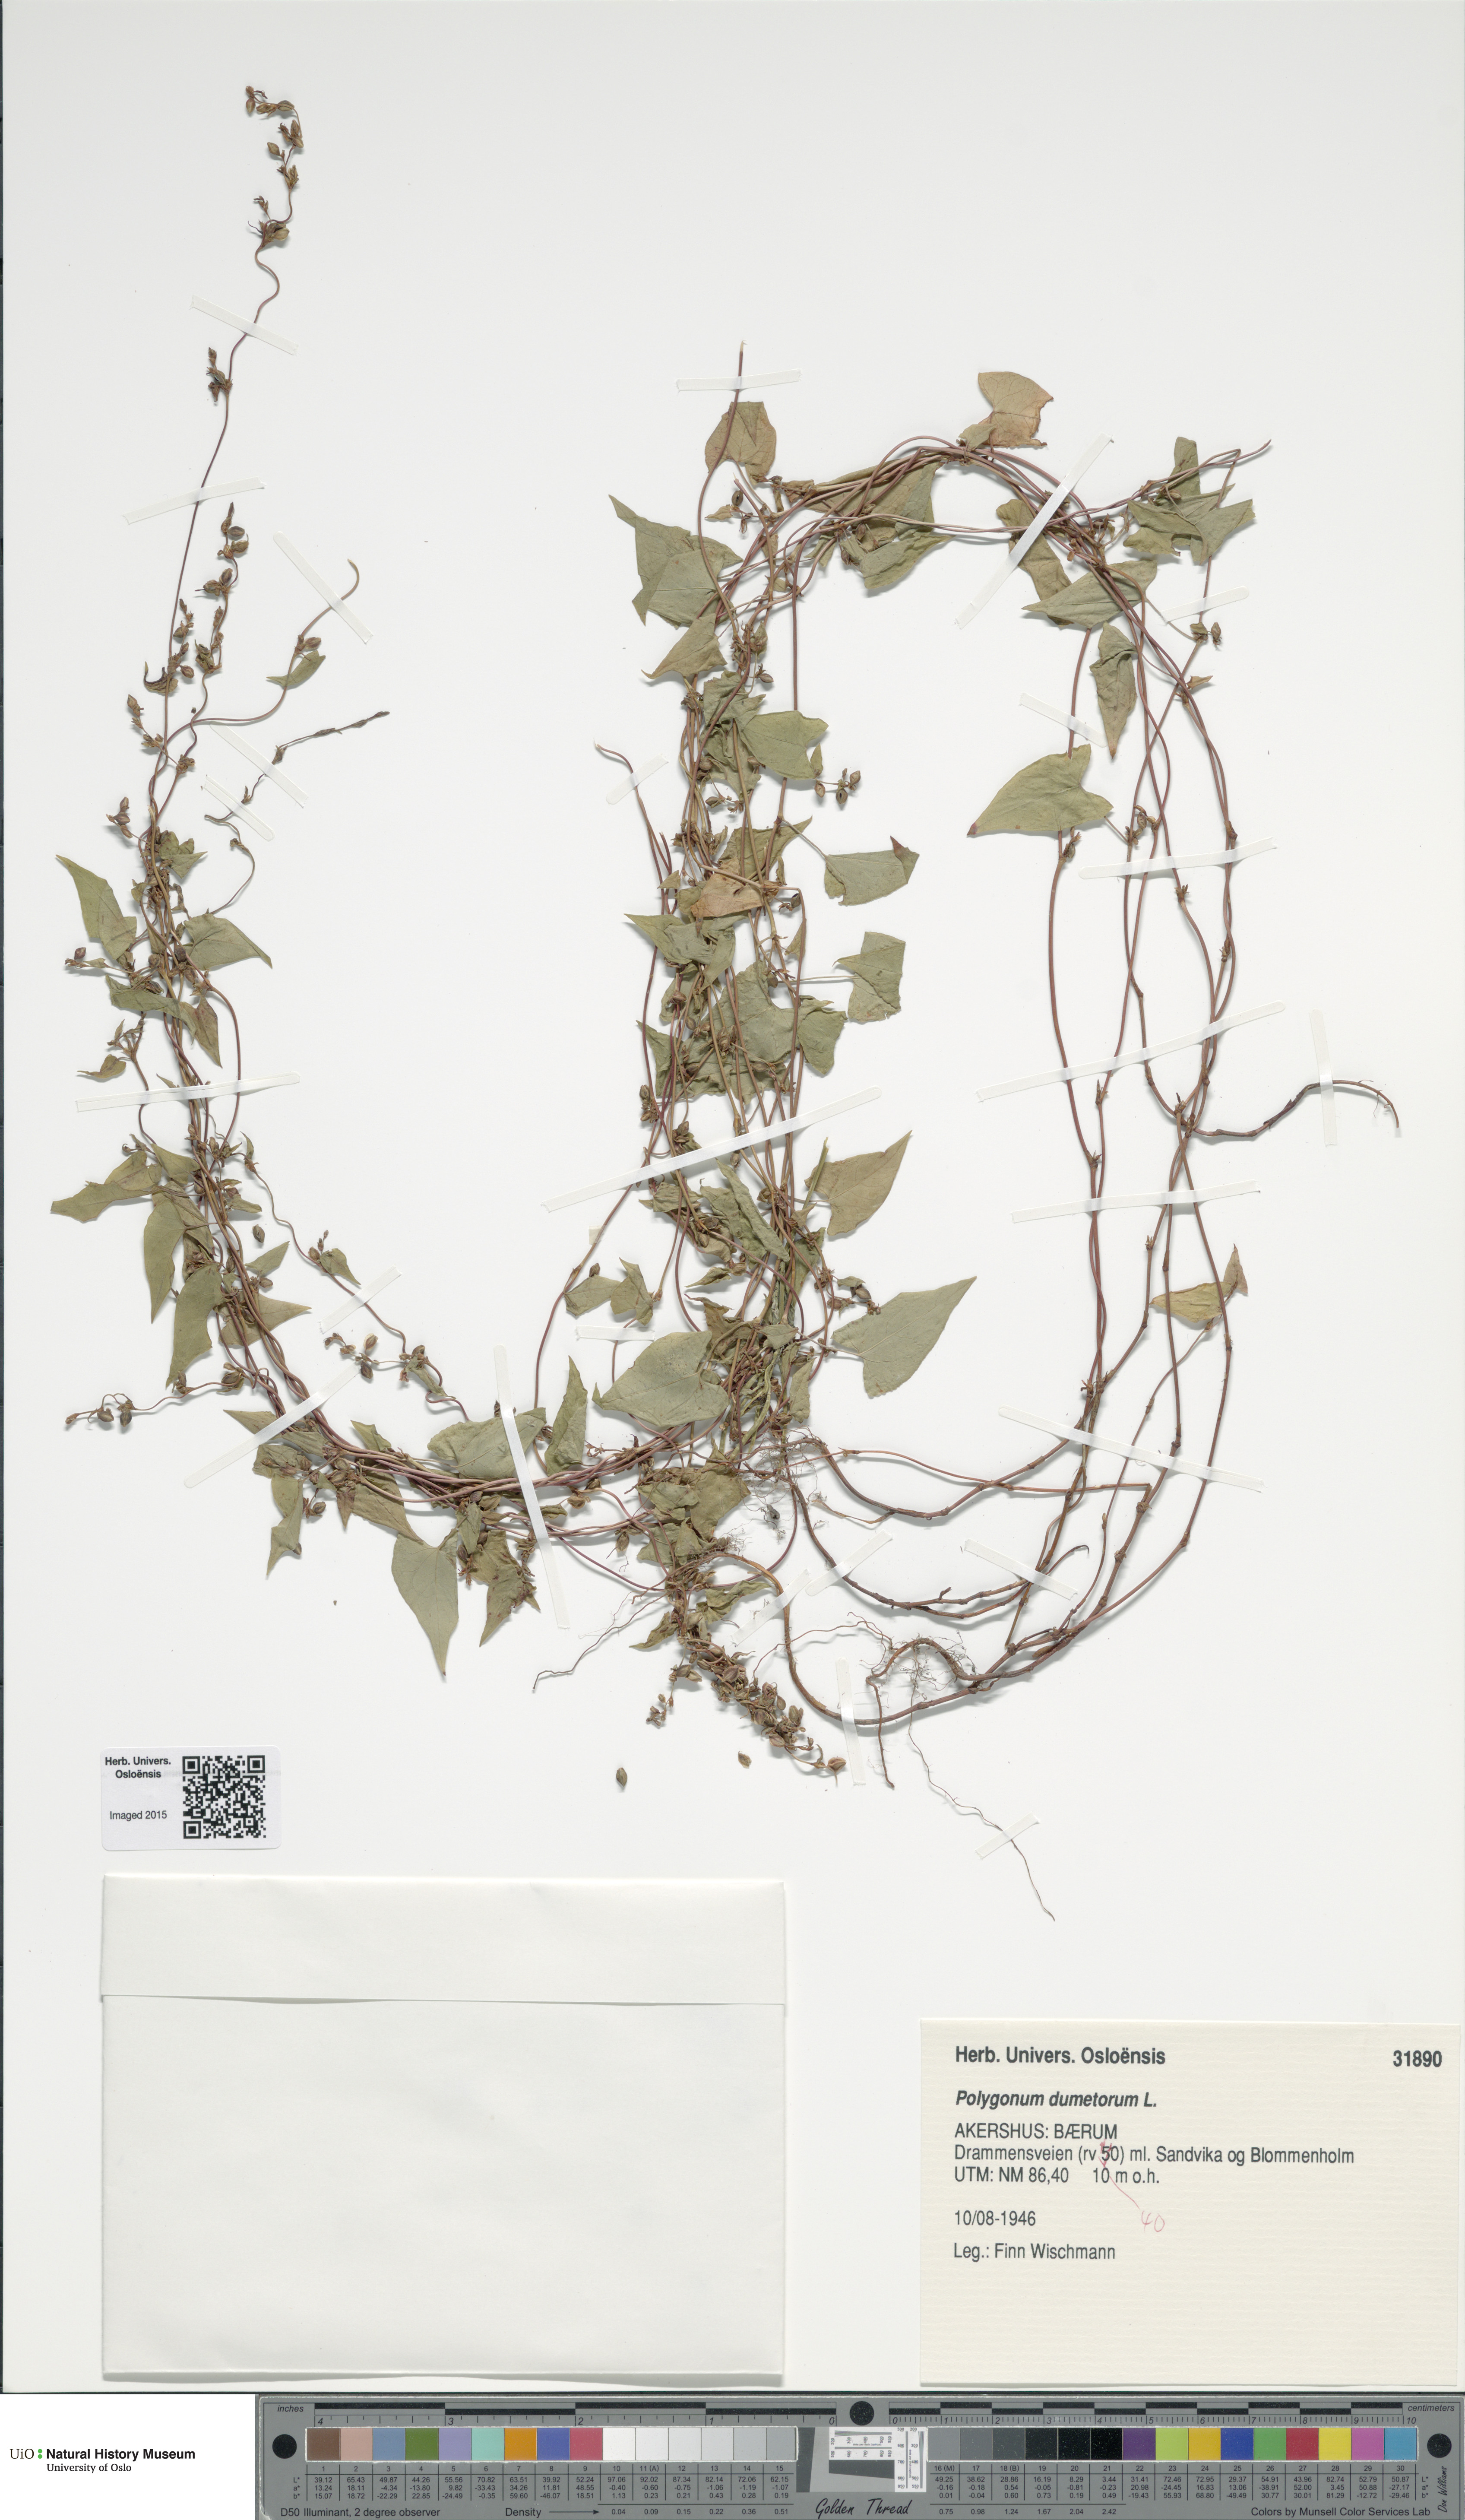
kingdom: Plantae
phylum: Tracheophyta
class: Magnoliopsida
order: Caryophyllales
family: Polygonaceae
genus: Fallopia
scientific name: Fallopia dumetorum
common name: Copse-bindweed
